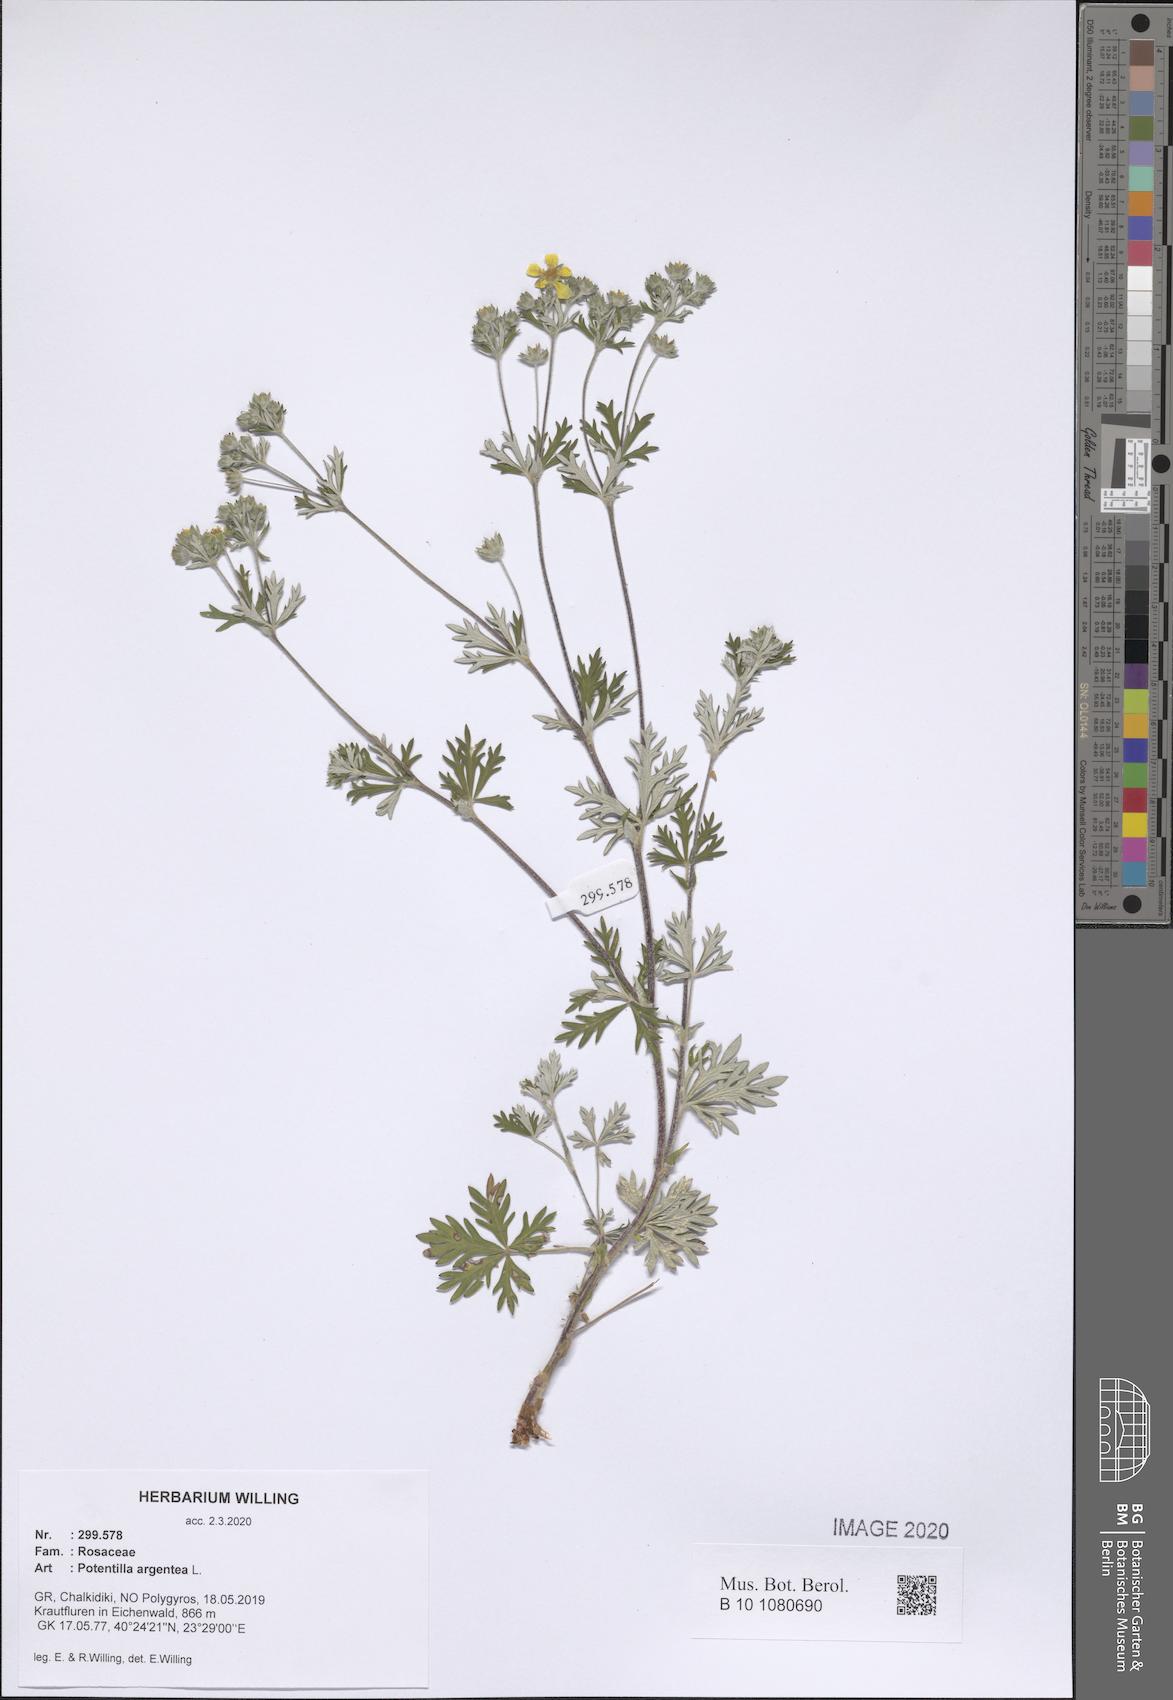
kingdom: Plantae
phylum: Tracheophyta
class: Magnoliopsida
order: Rosales
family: Rosaceae
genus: Potentilla
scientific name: Potentilla argentea
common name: Hoary cinquefoil
